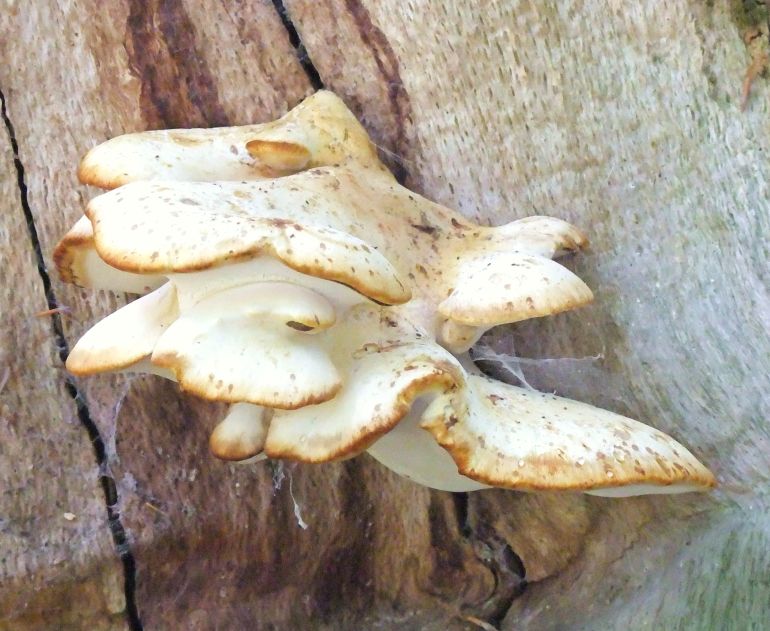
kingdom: Fungi
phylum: Basidiomycota
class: Agaricomycetes
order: Polyporales
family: Fomitopsidaceae
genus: Buglossoporus
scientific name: Buglossoporus quercinus
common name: egetunge
